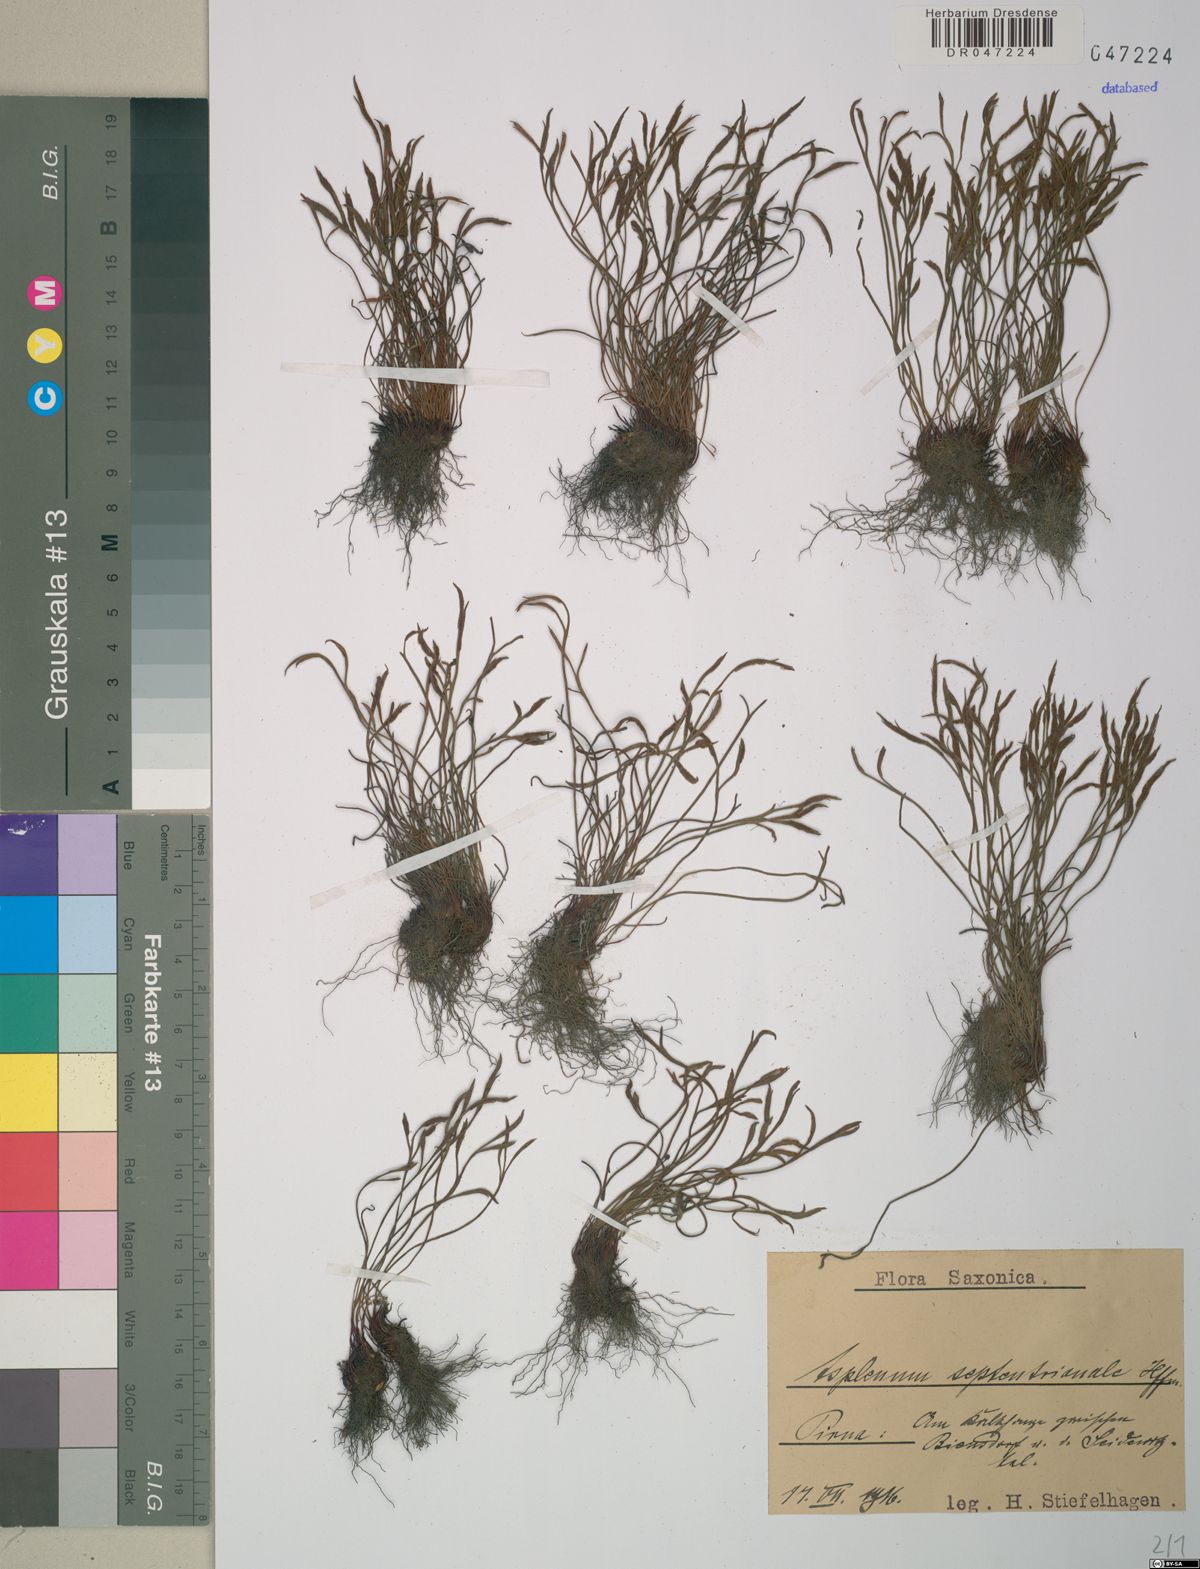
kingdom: Plantae
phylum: Tracheophyta
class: Polypodiopsida
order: Polypodiales
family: Aspleniaceae
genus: Asplenium
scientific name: Asplenium septentrionale
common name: Forked spleenwort
